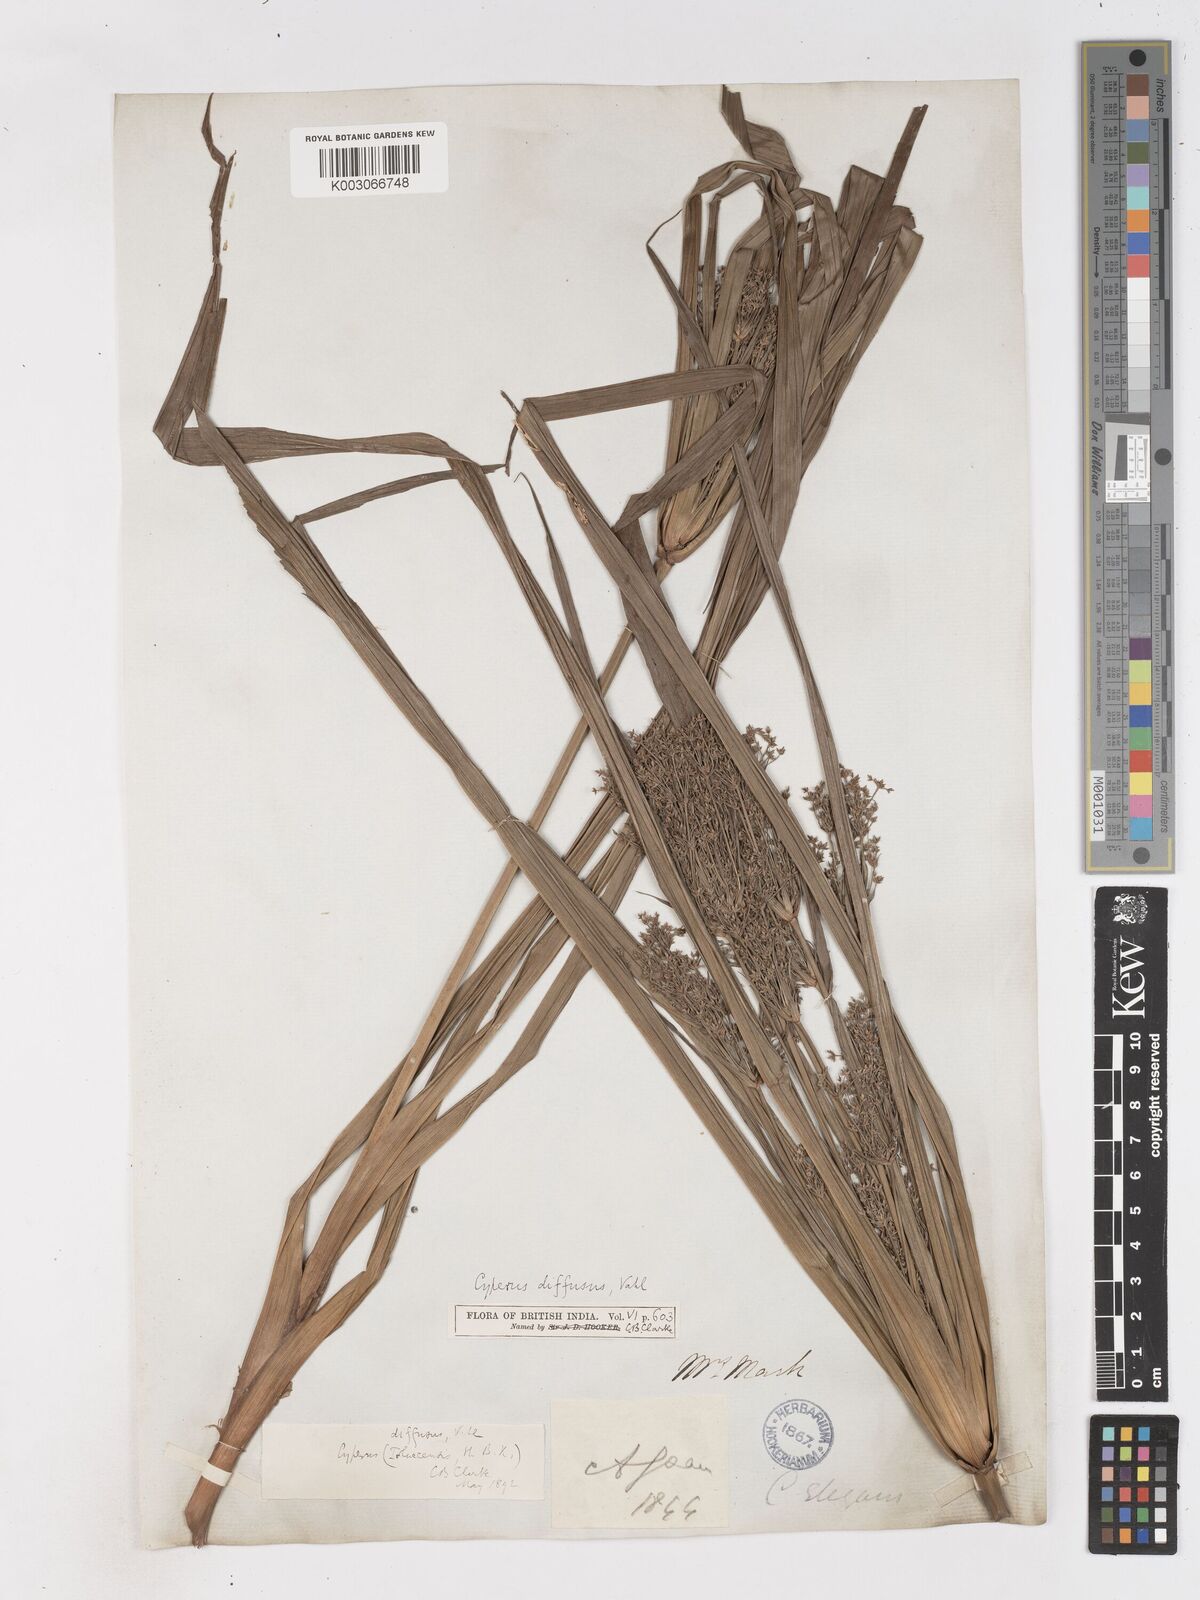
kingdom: Plantae
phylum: Tracheophyta
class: Liliopsida
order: Poales
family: Cyperaceae
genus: Cyperus
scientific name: Cyperus diffusus
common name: Dwarf umbrella grass
